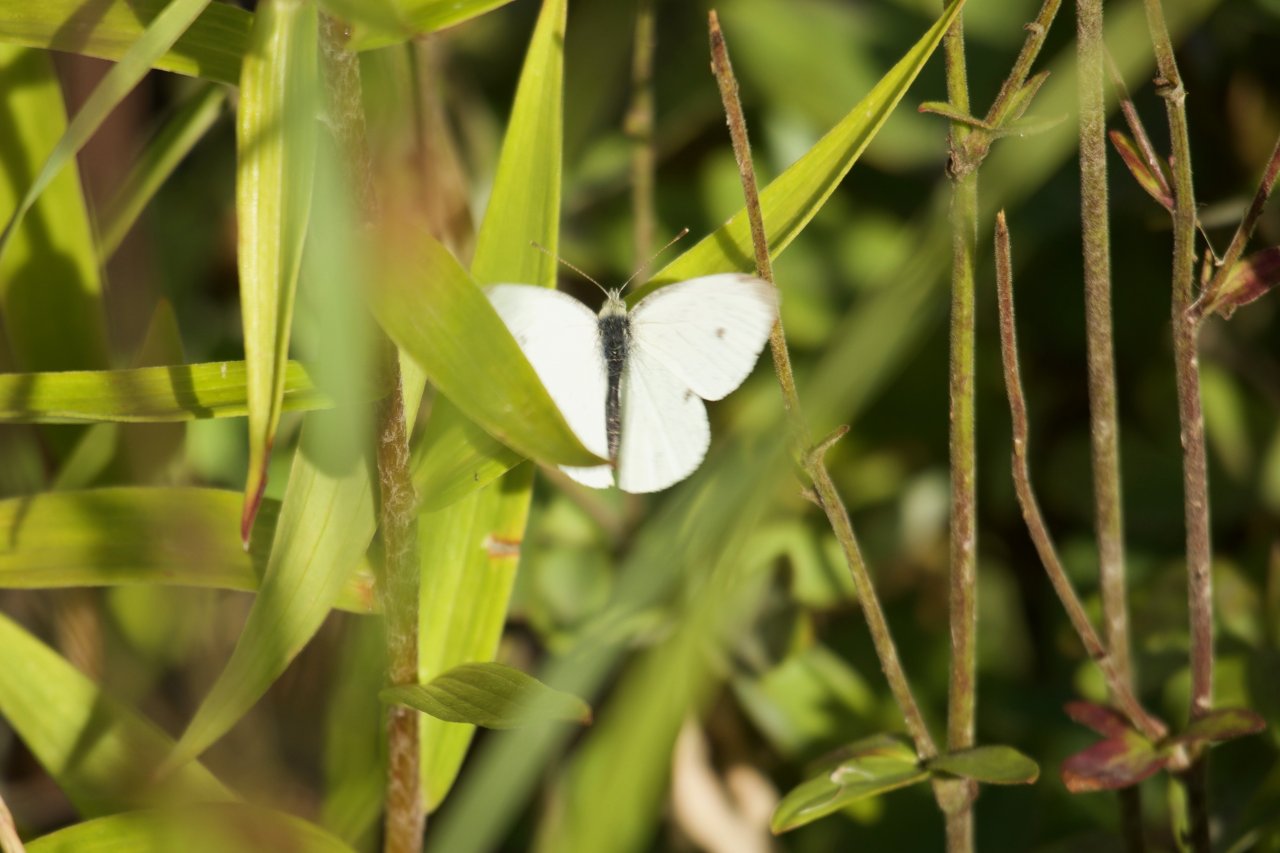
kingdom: Animalia
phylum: Arthropoda
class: Insecta
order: Lepidoptera
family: Pieridae
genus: Pieris
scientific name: Pieris rapae
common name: Cabbage White
